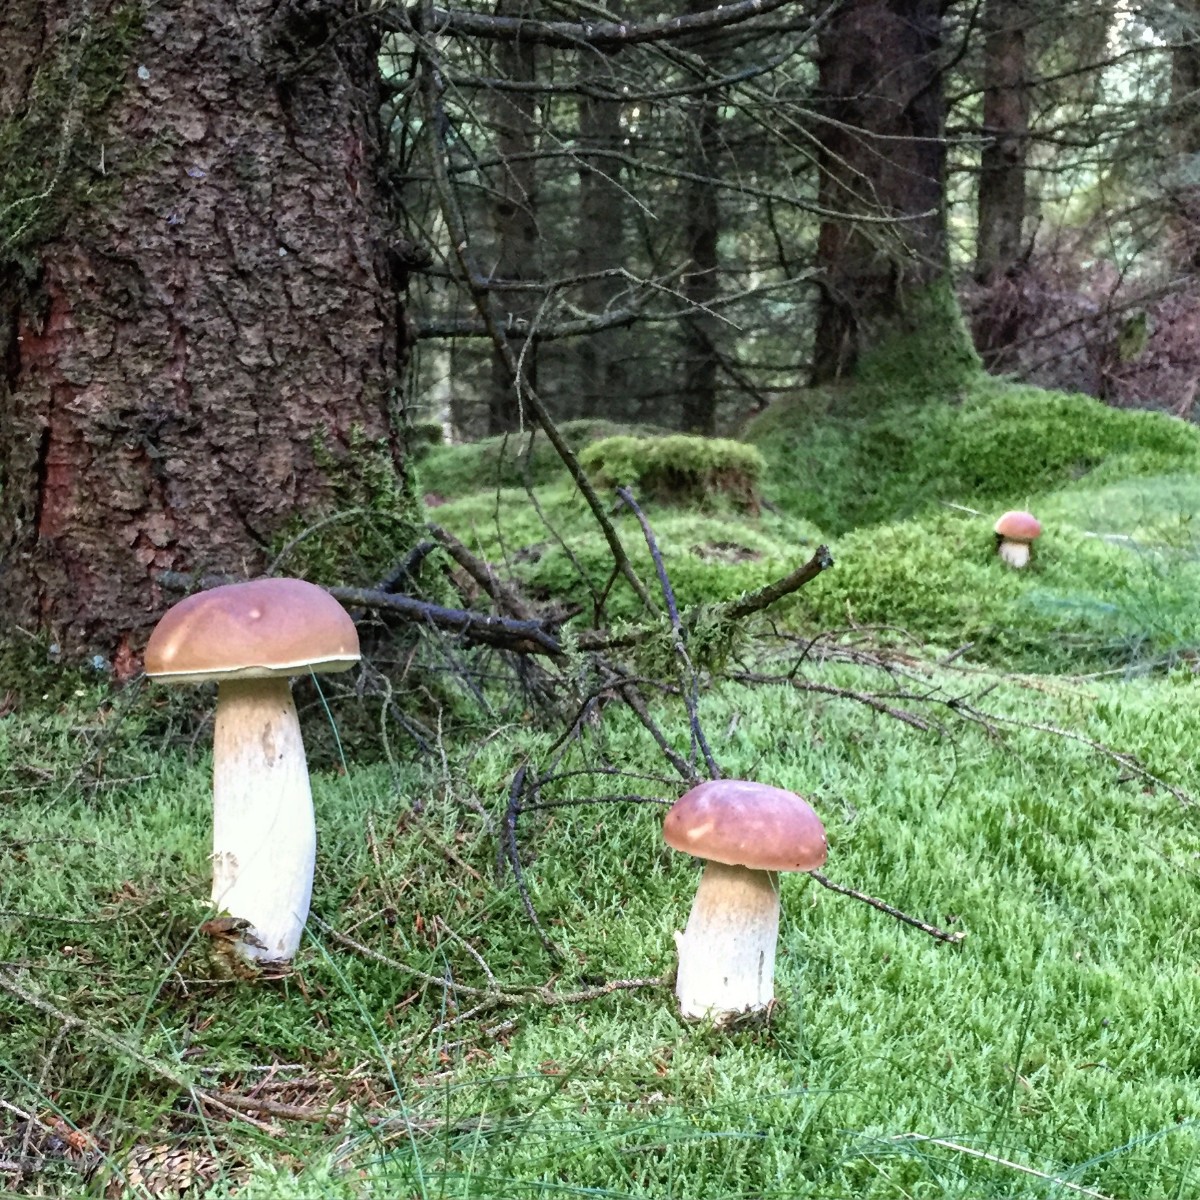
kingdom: Fungi
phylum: Basidiomycota
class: Agaricomycetes
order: Boletales
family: Boletaceae
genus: Boletus
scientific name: Boletus edulis
